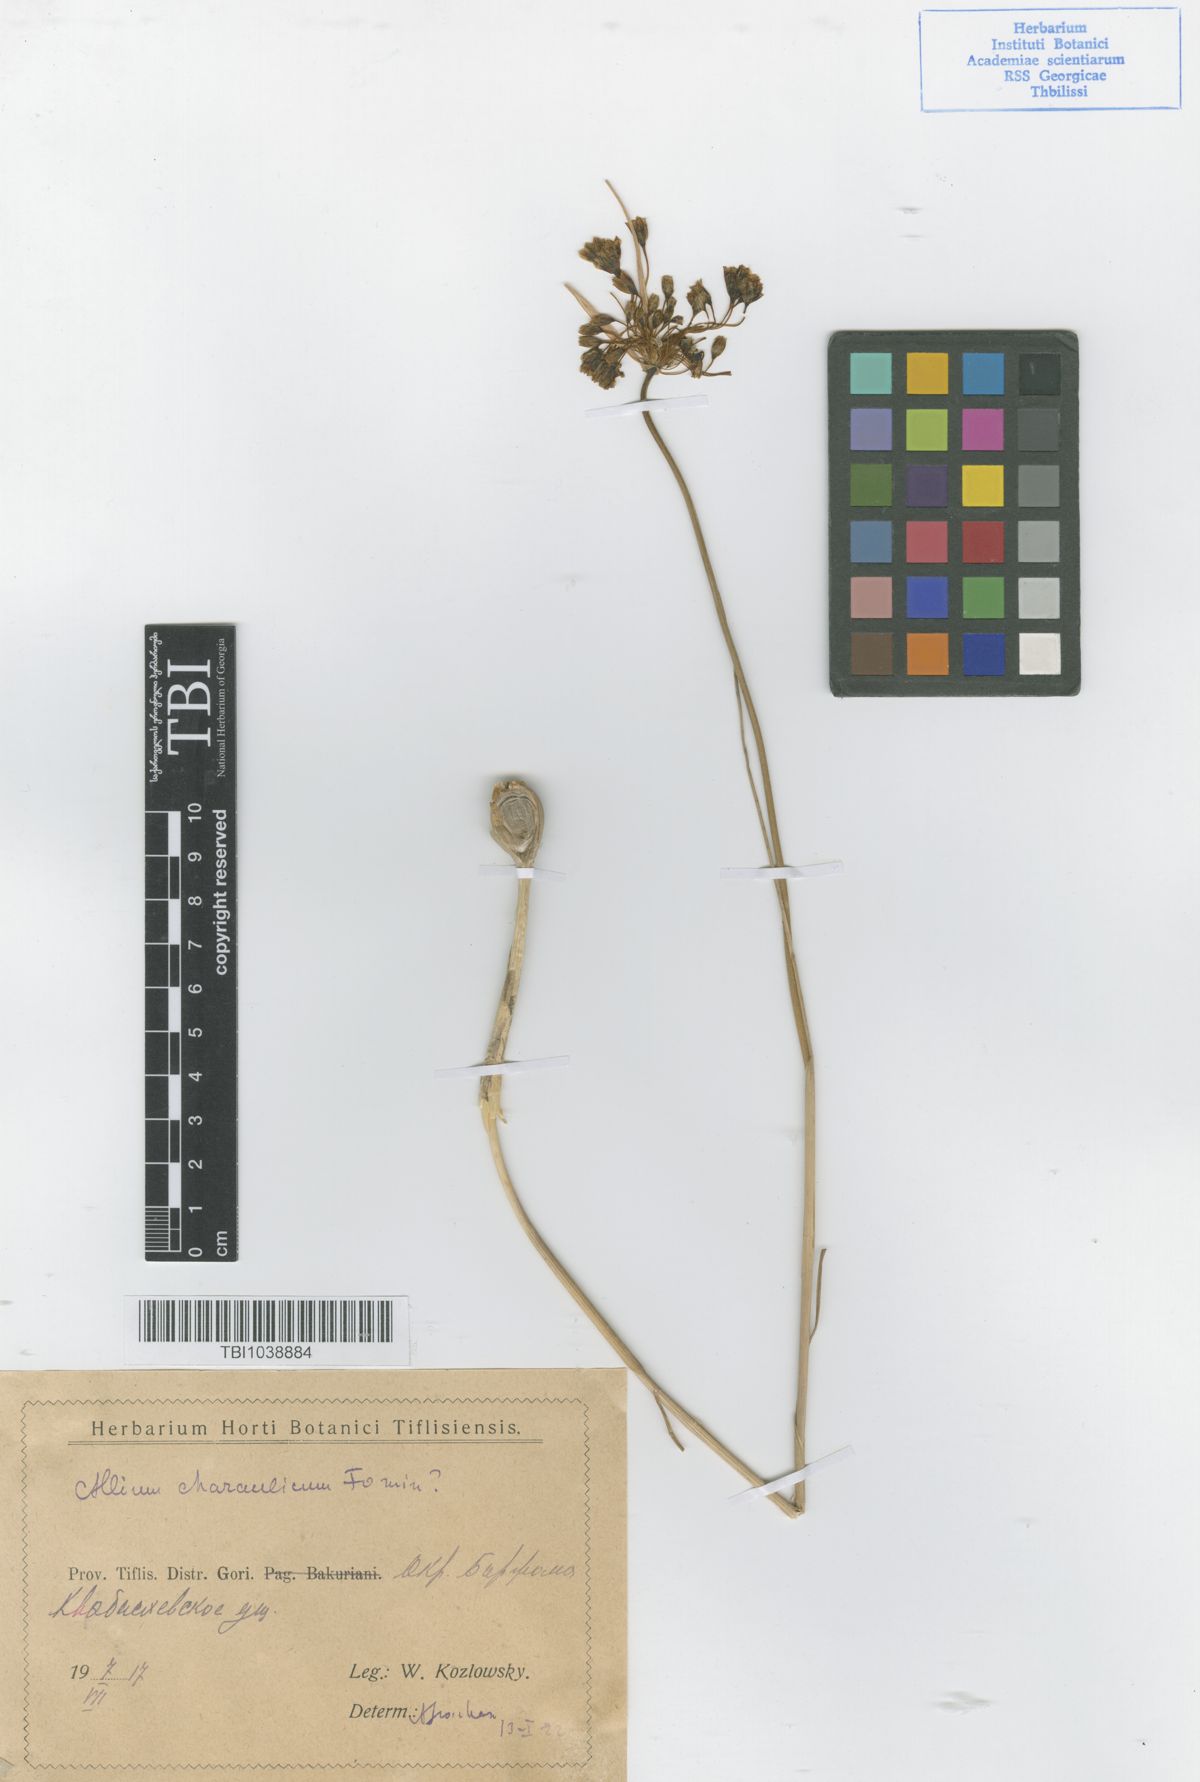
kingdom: Plantae
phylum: Tracheophyta
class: Liliopsida
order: Asparagales
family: Amaryllidaceae
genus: Allium
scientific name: Allium paniculatum
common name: Pale garlic
